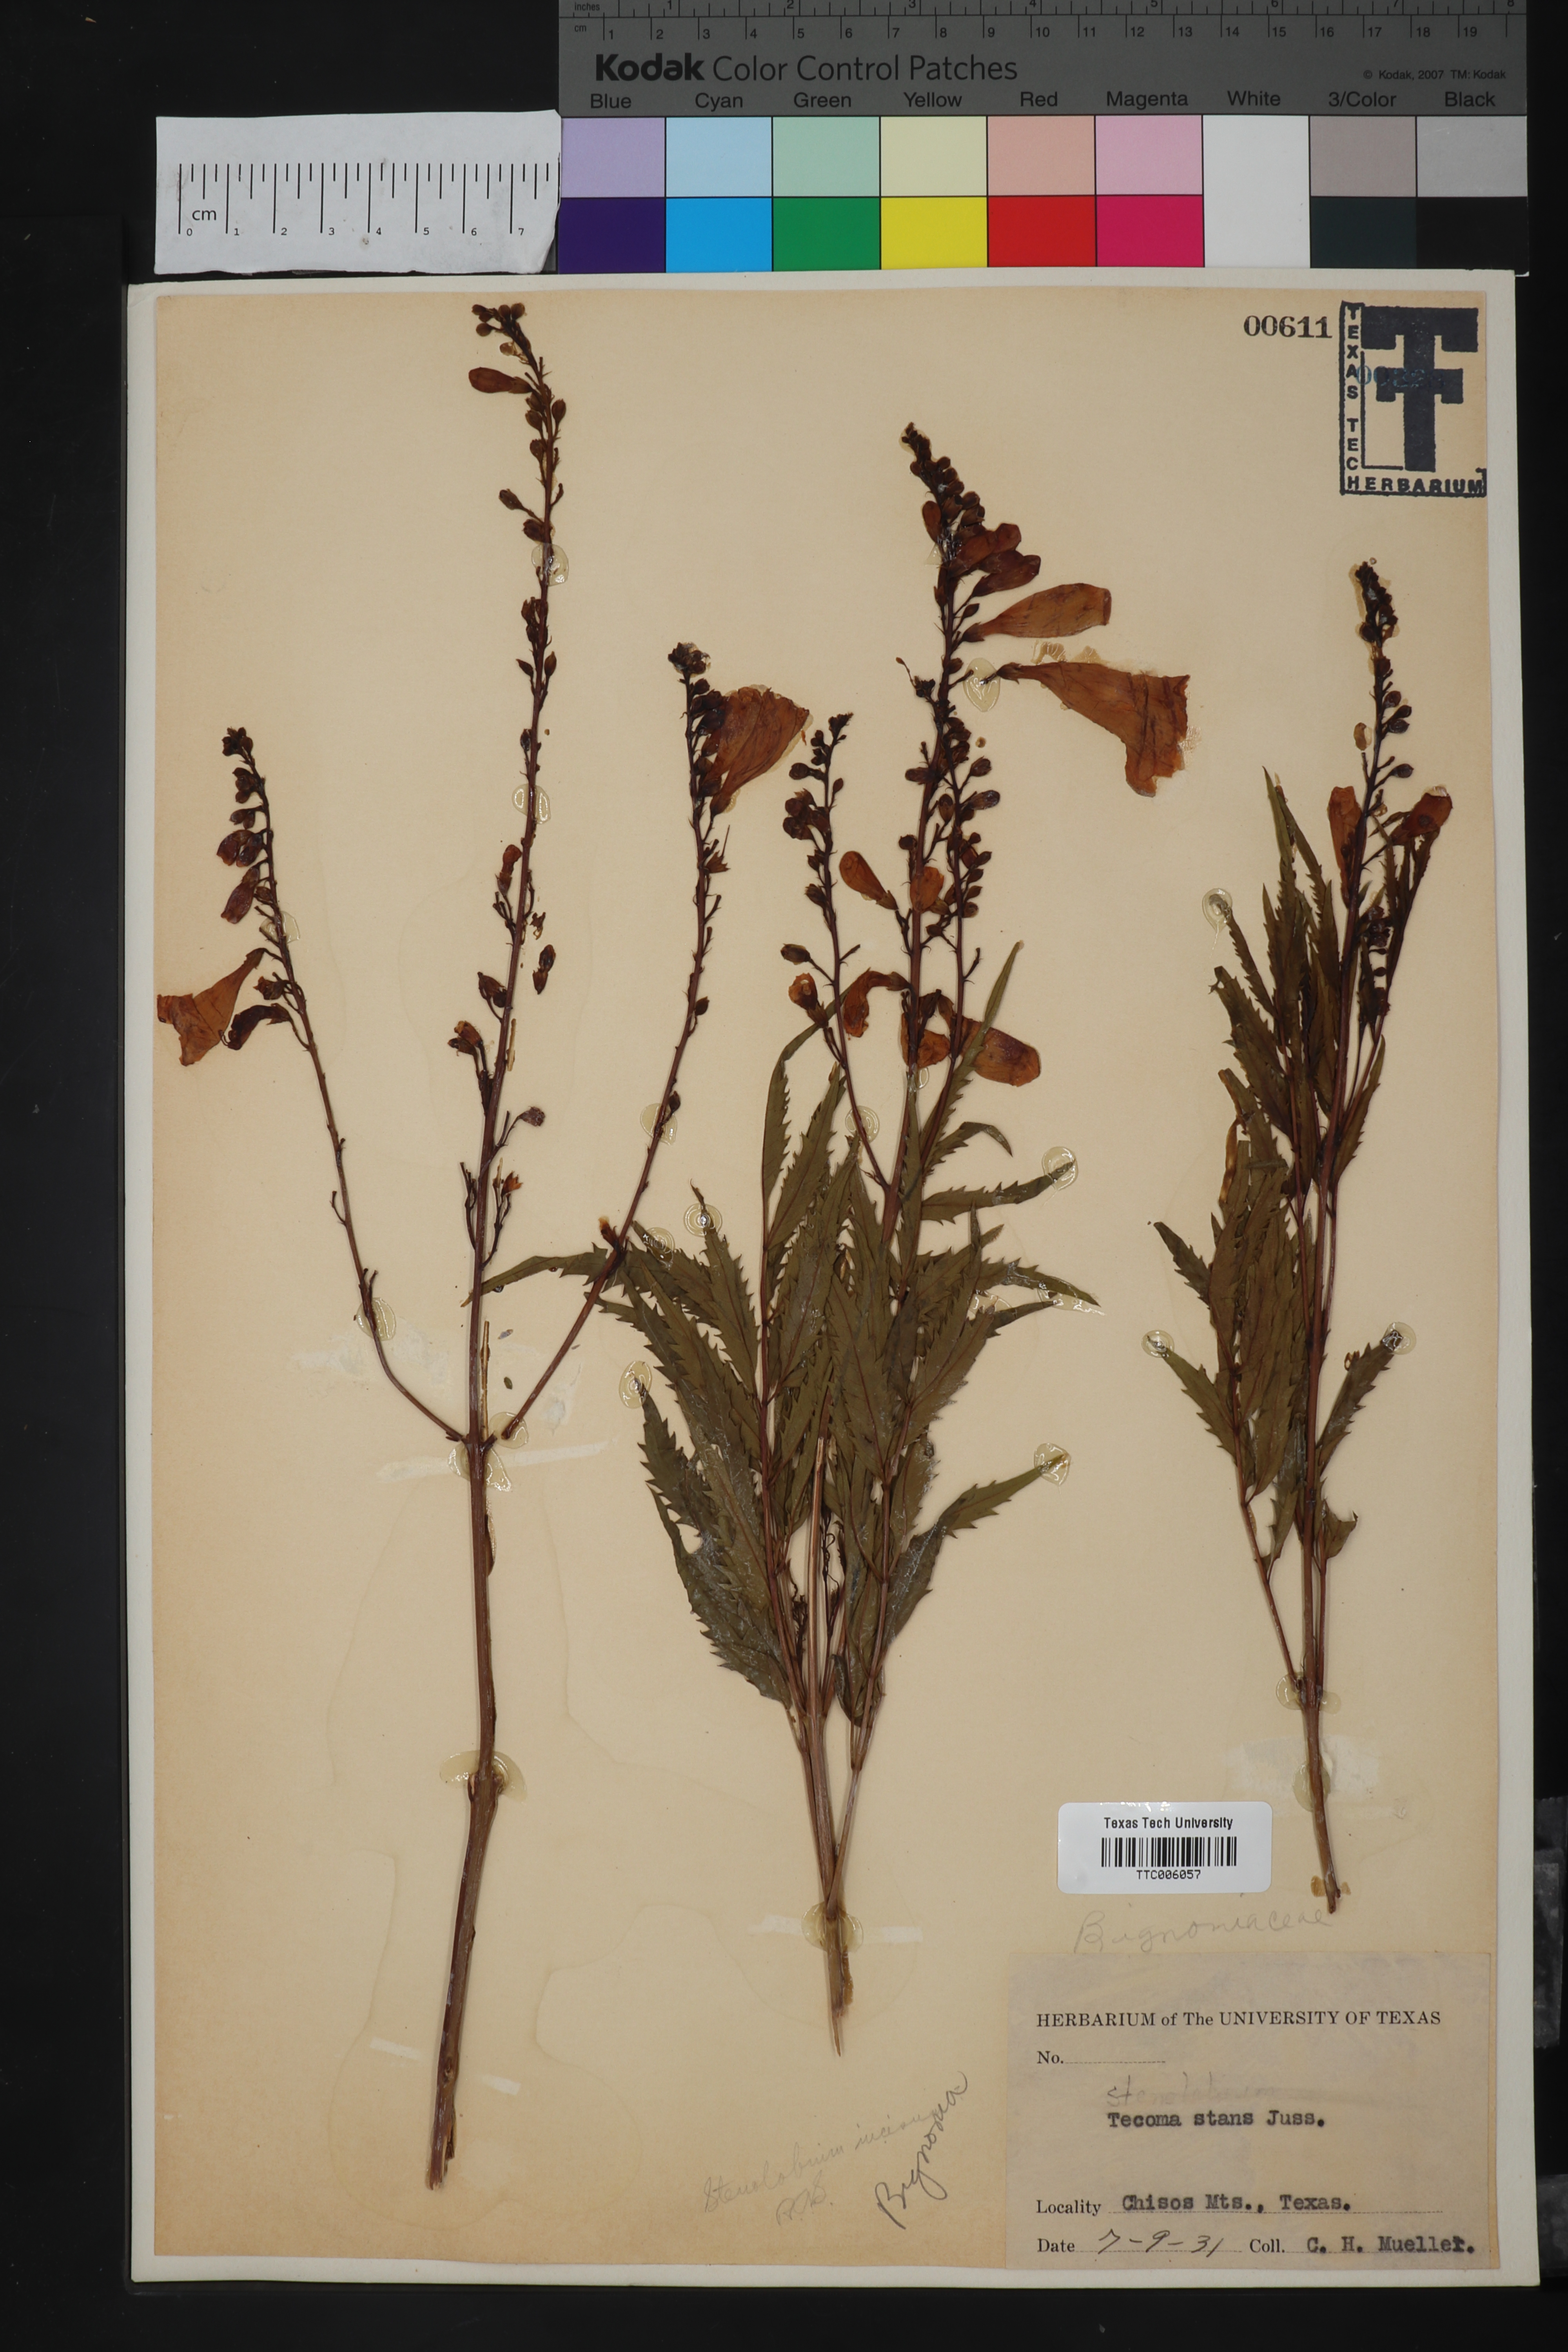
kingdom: Plantae
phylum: Tracheophyta
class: Magnoliopsida
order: Lamiales
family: Bignoniaceae
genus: Tecoma
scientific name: Tecoma stans
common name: Yellow trumpetbush
